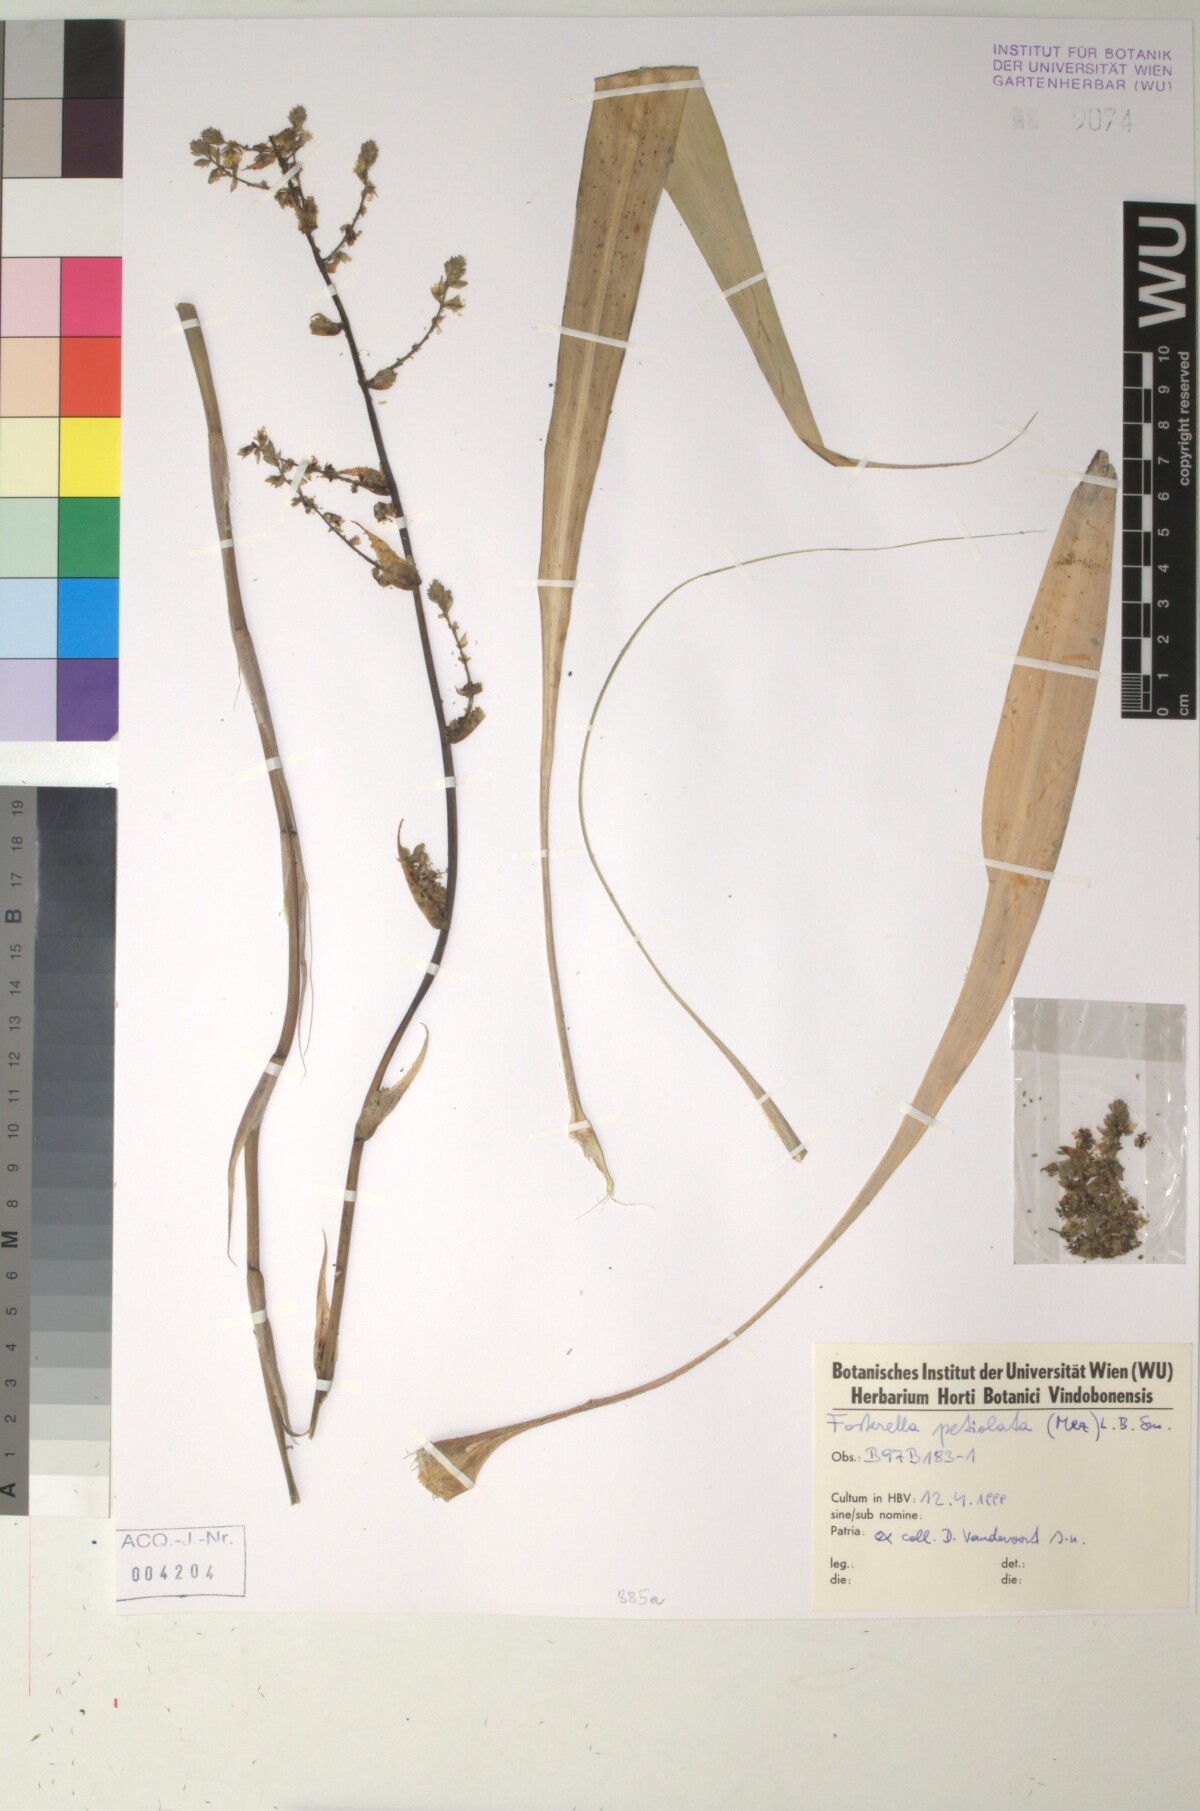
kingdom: Plantae
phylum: Tracheophyta
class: Liliopsida
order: Poales
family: Bromeliaceae
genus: Fosterella
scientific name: Fosterella petiolata
